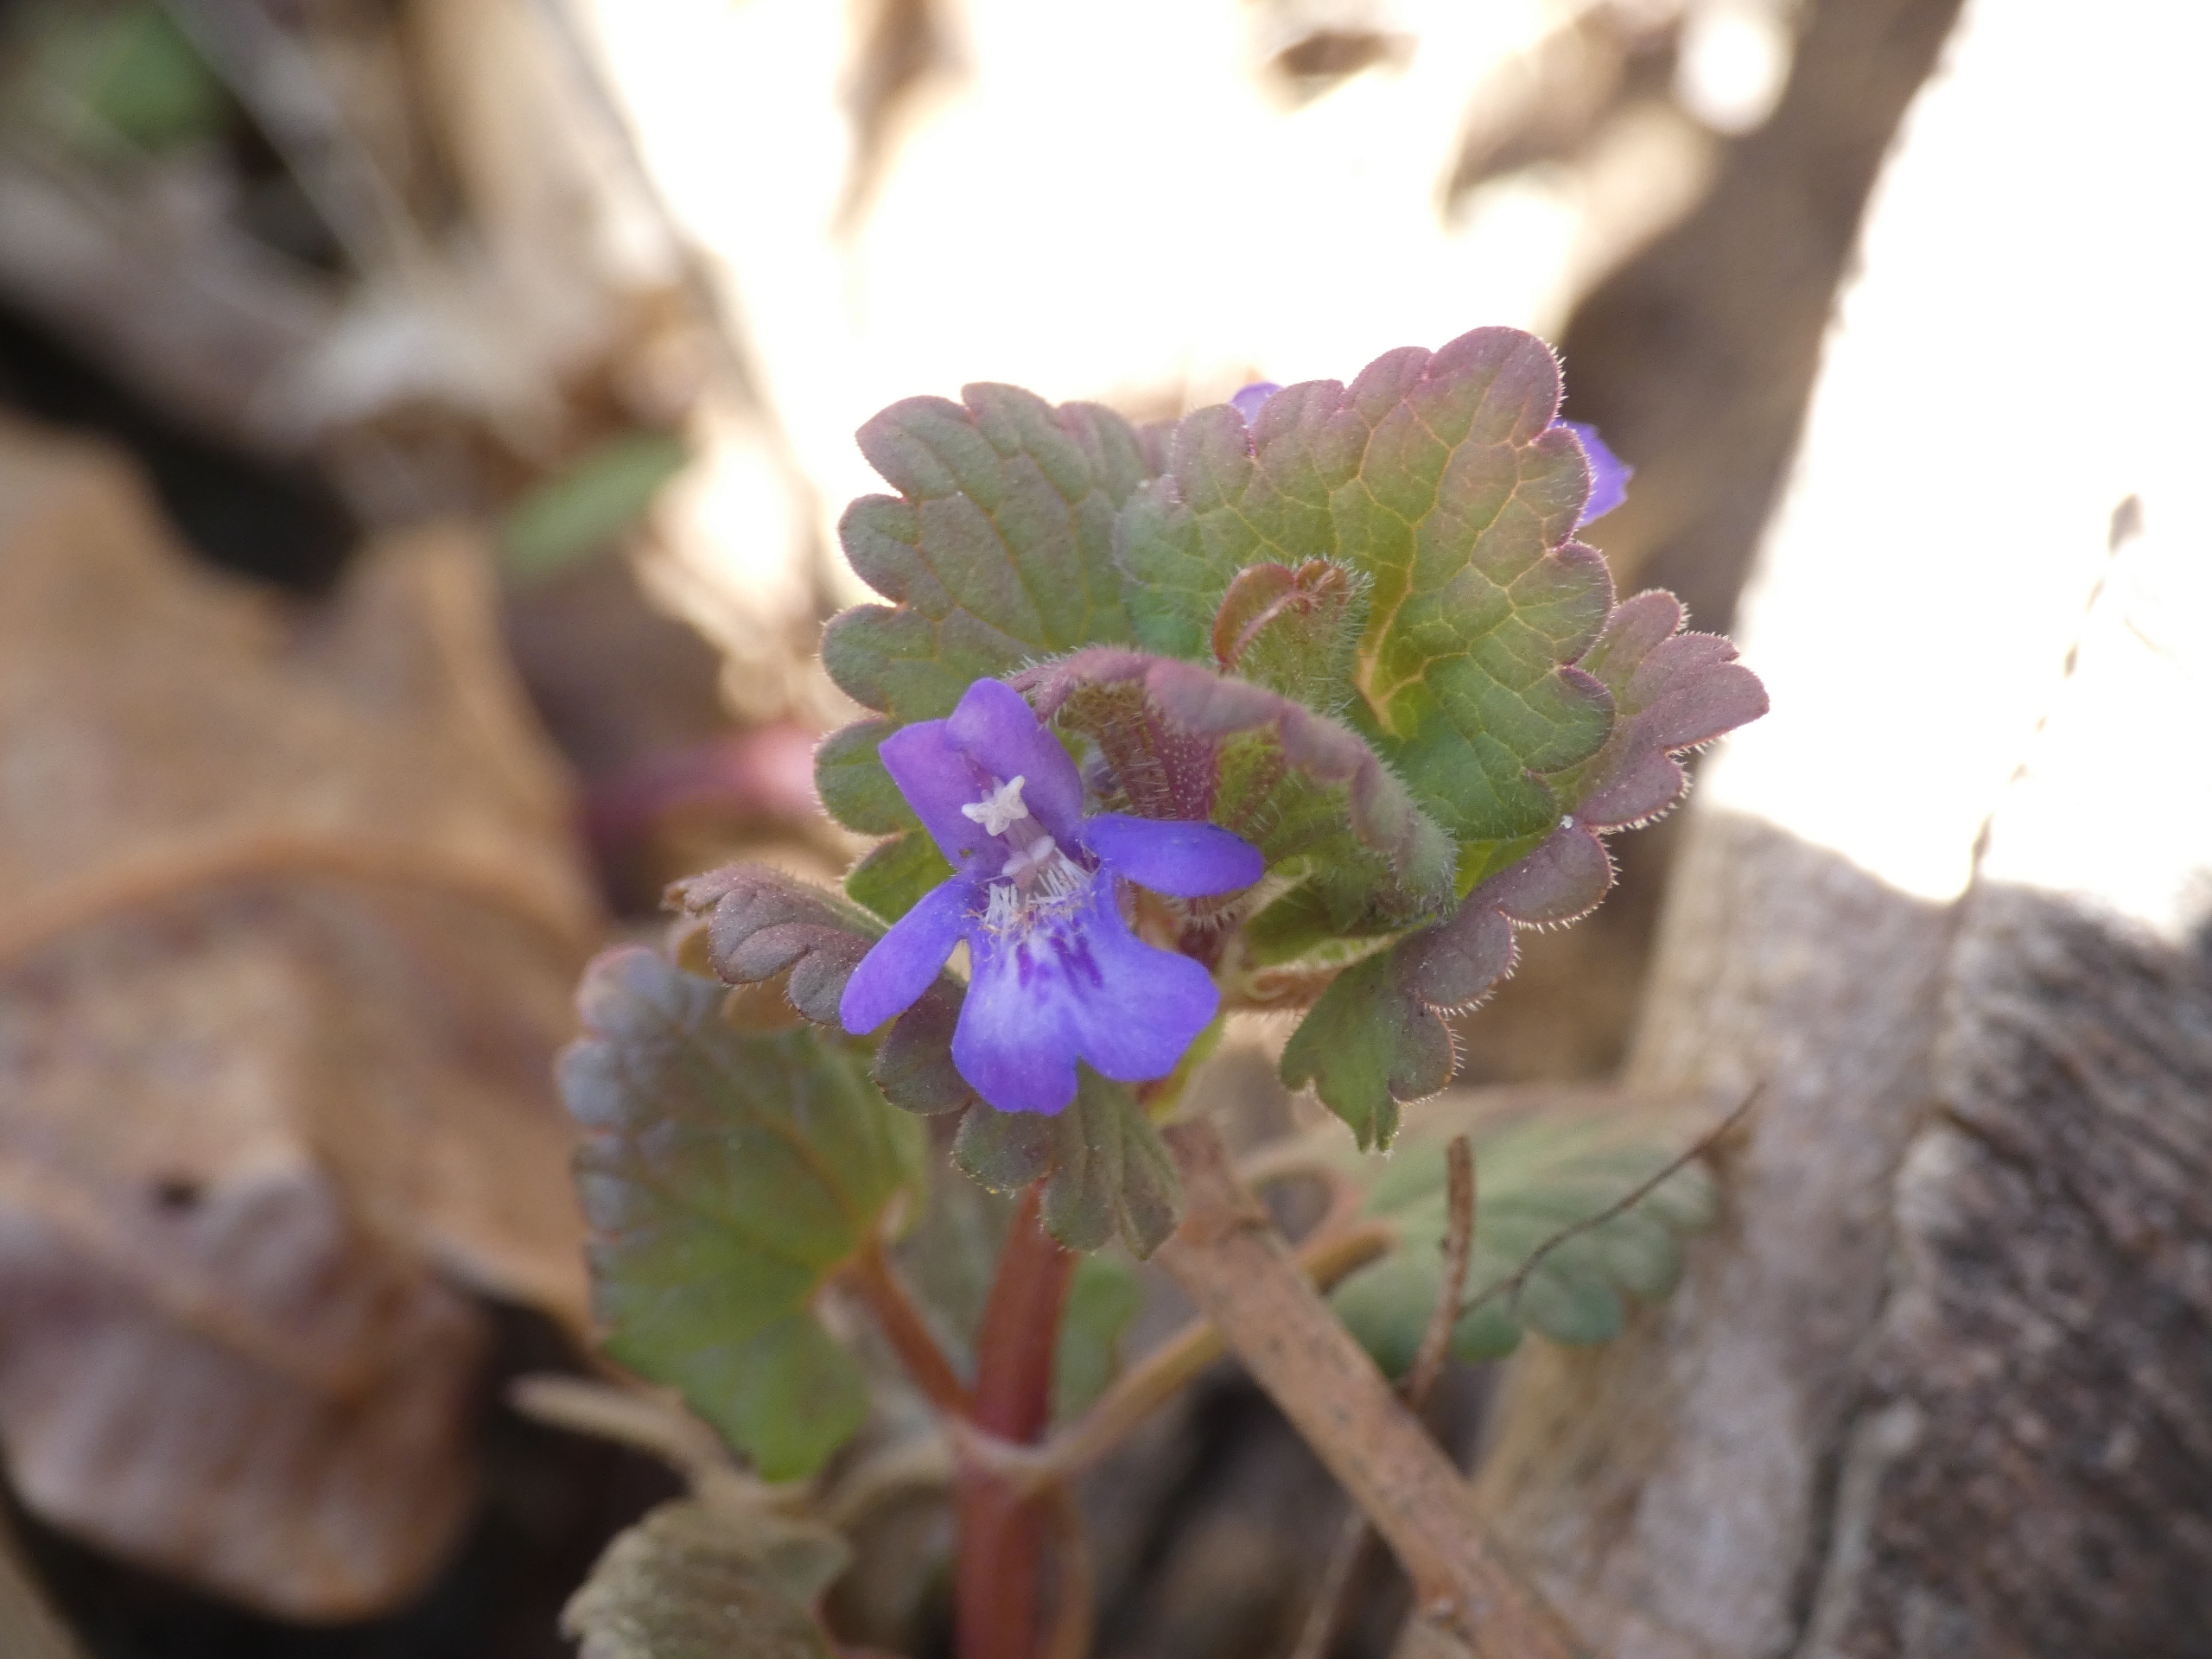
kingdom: Plantae
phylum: Tracheophyta
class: Magnoliopsida
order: Lamiales
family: Lamiaceae
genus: Glechoma
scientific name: Glechoma hederacea
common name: Korsknap
